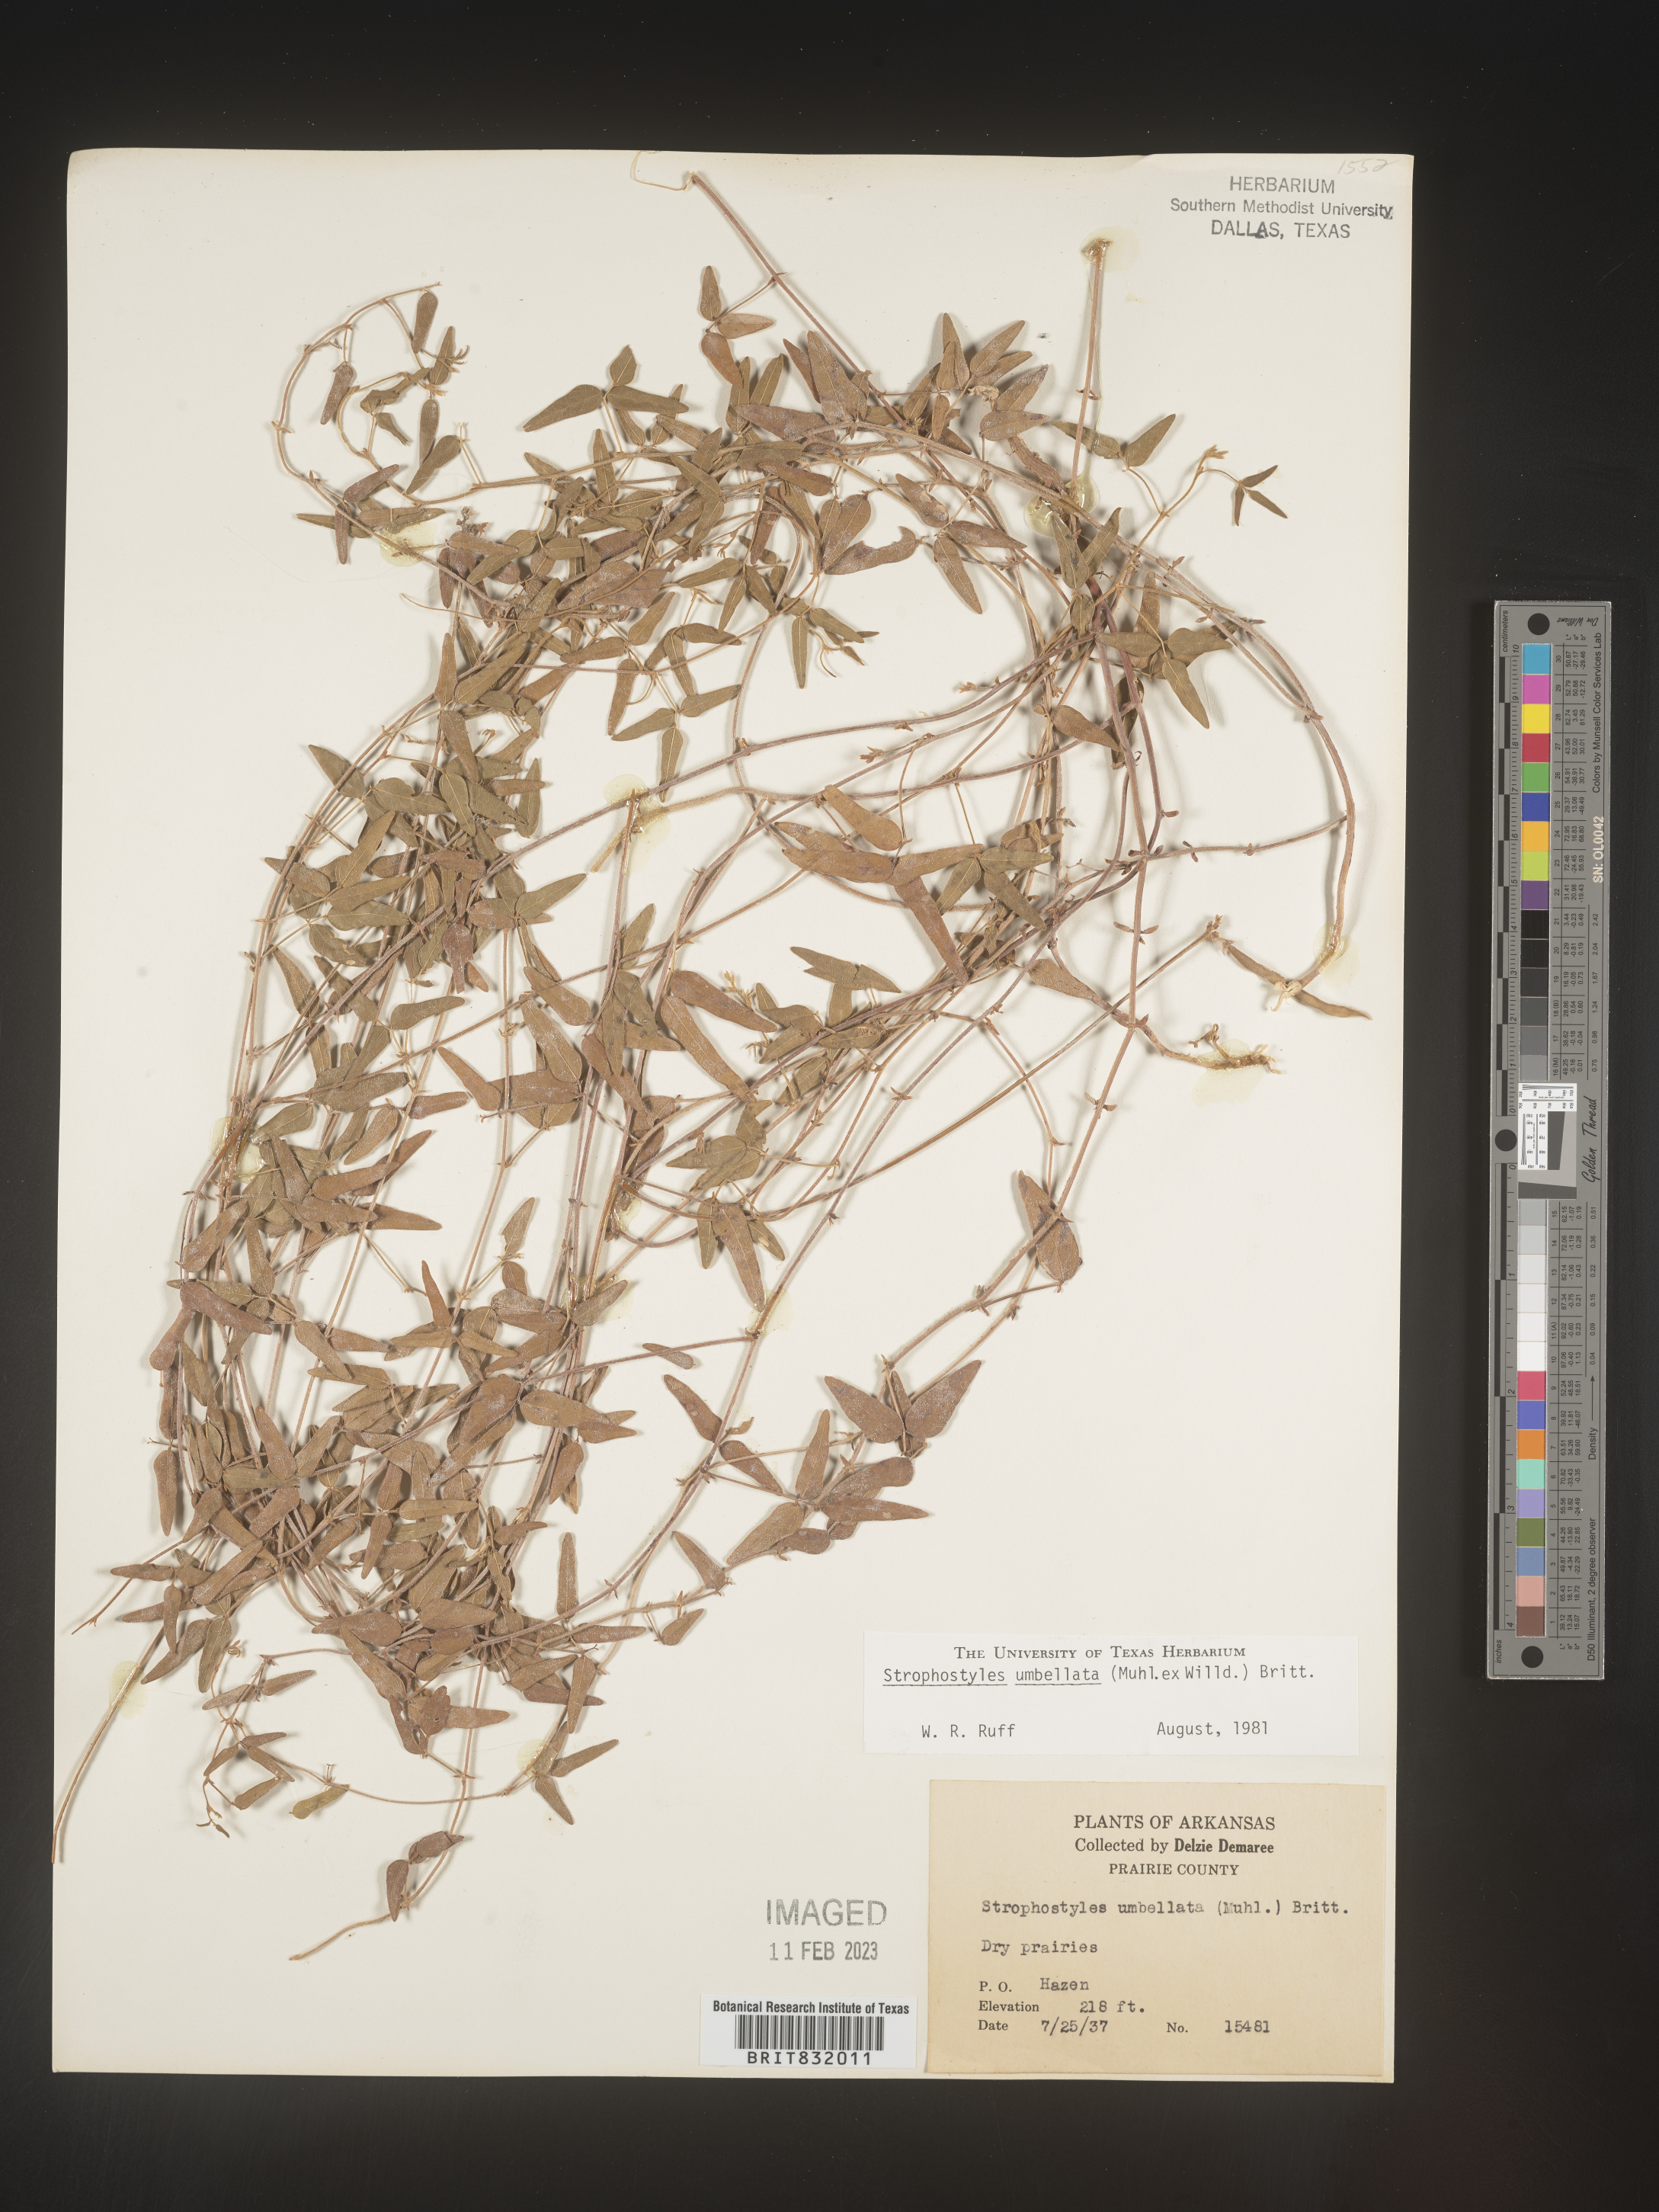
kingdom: Plantae
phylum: Tracheophyta
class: Magnoliopsida
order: Fabales
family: Fabaceae
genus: Strophostyles
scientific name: Strophostyles umbellata
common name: Perennial wild bean
